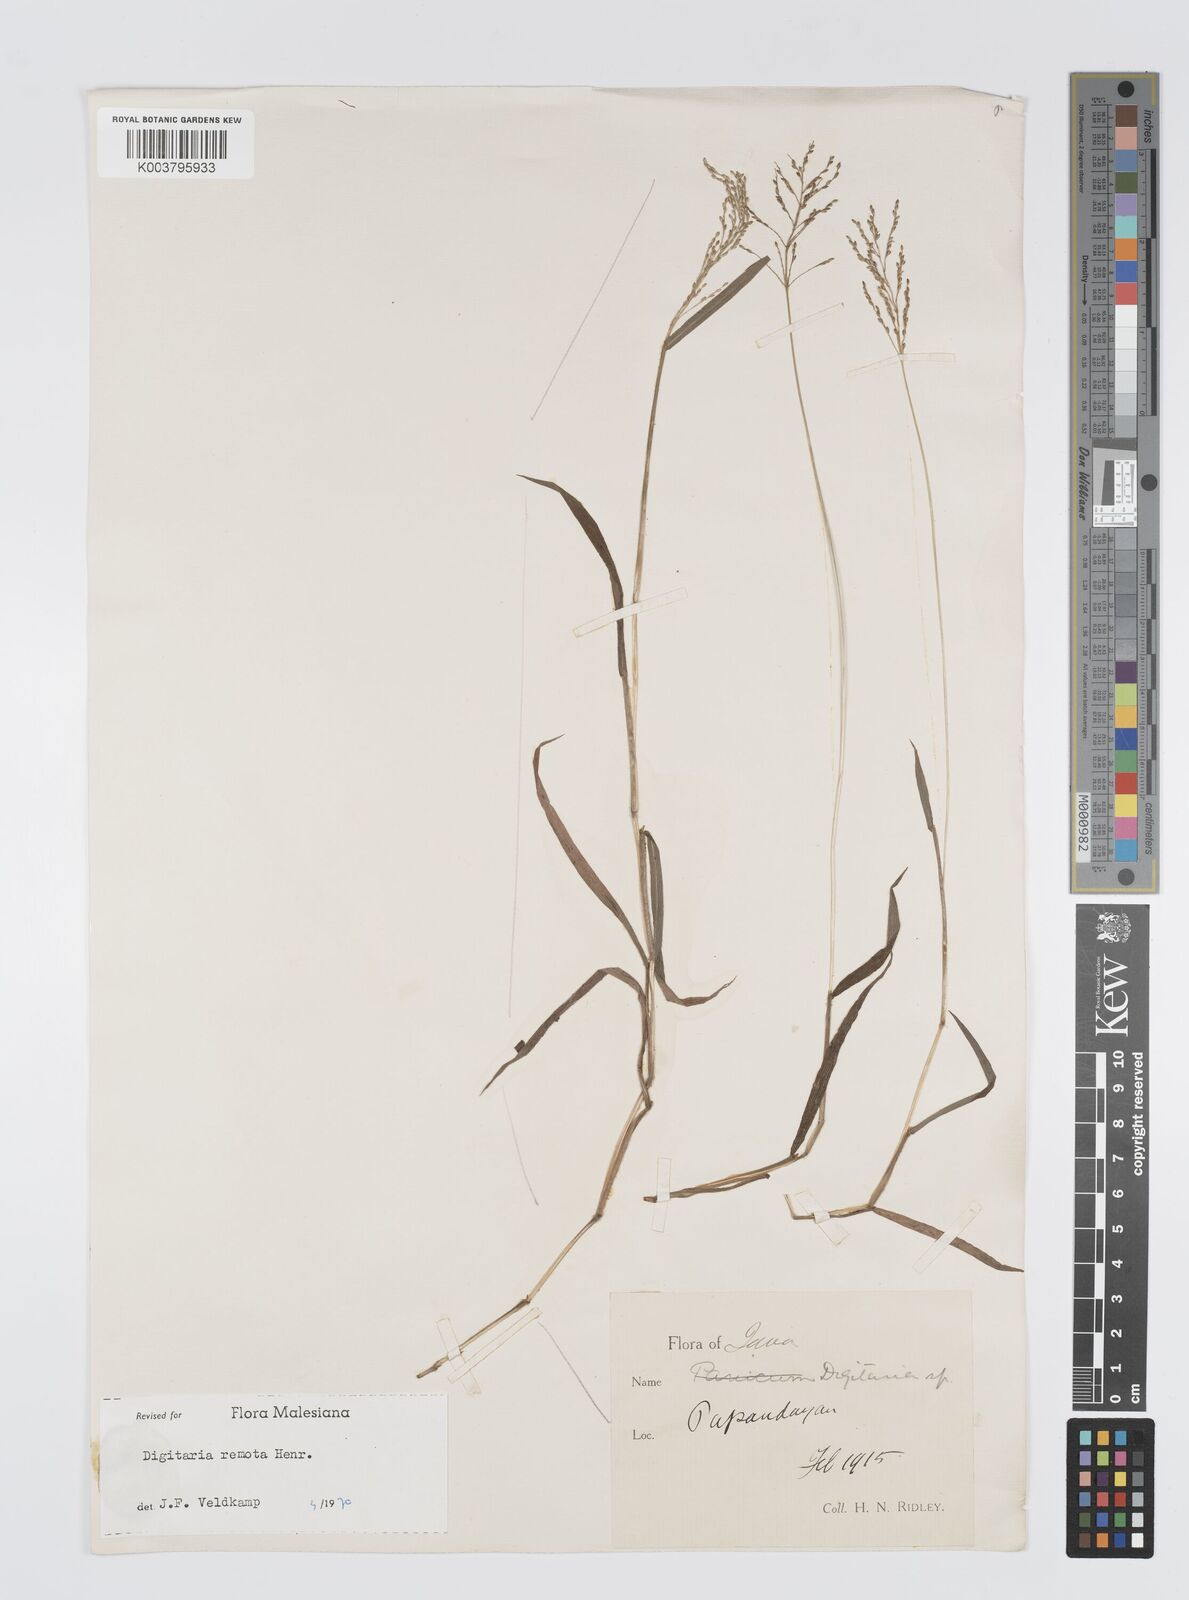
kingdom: Plantae
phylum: Tracheophyta
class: Liliopsida
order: Poales
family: Poaceae
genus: Digitaria
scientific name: Digitaria wallichiana
